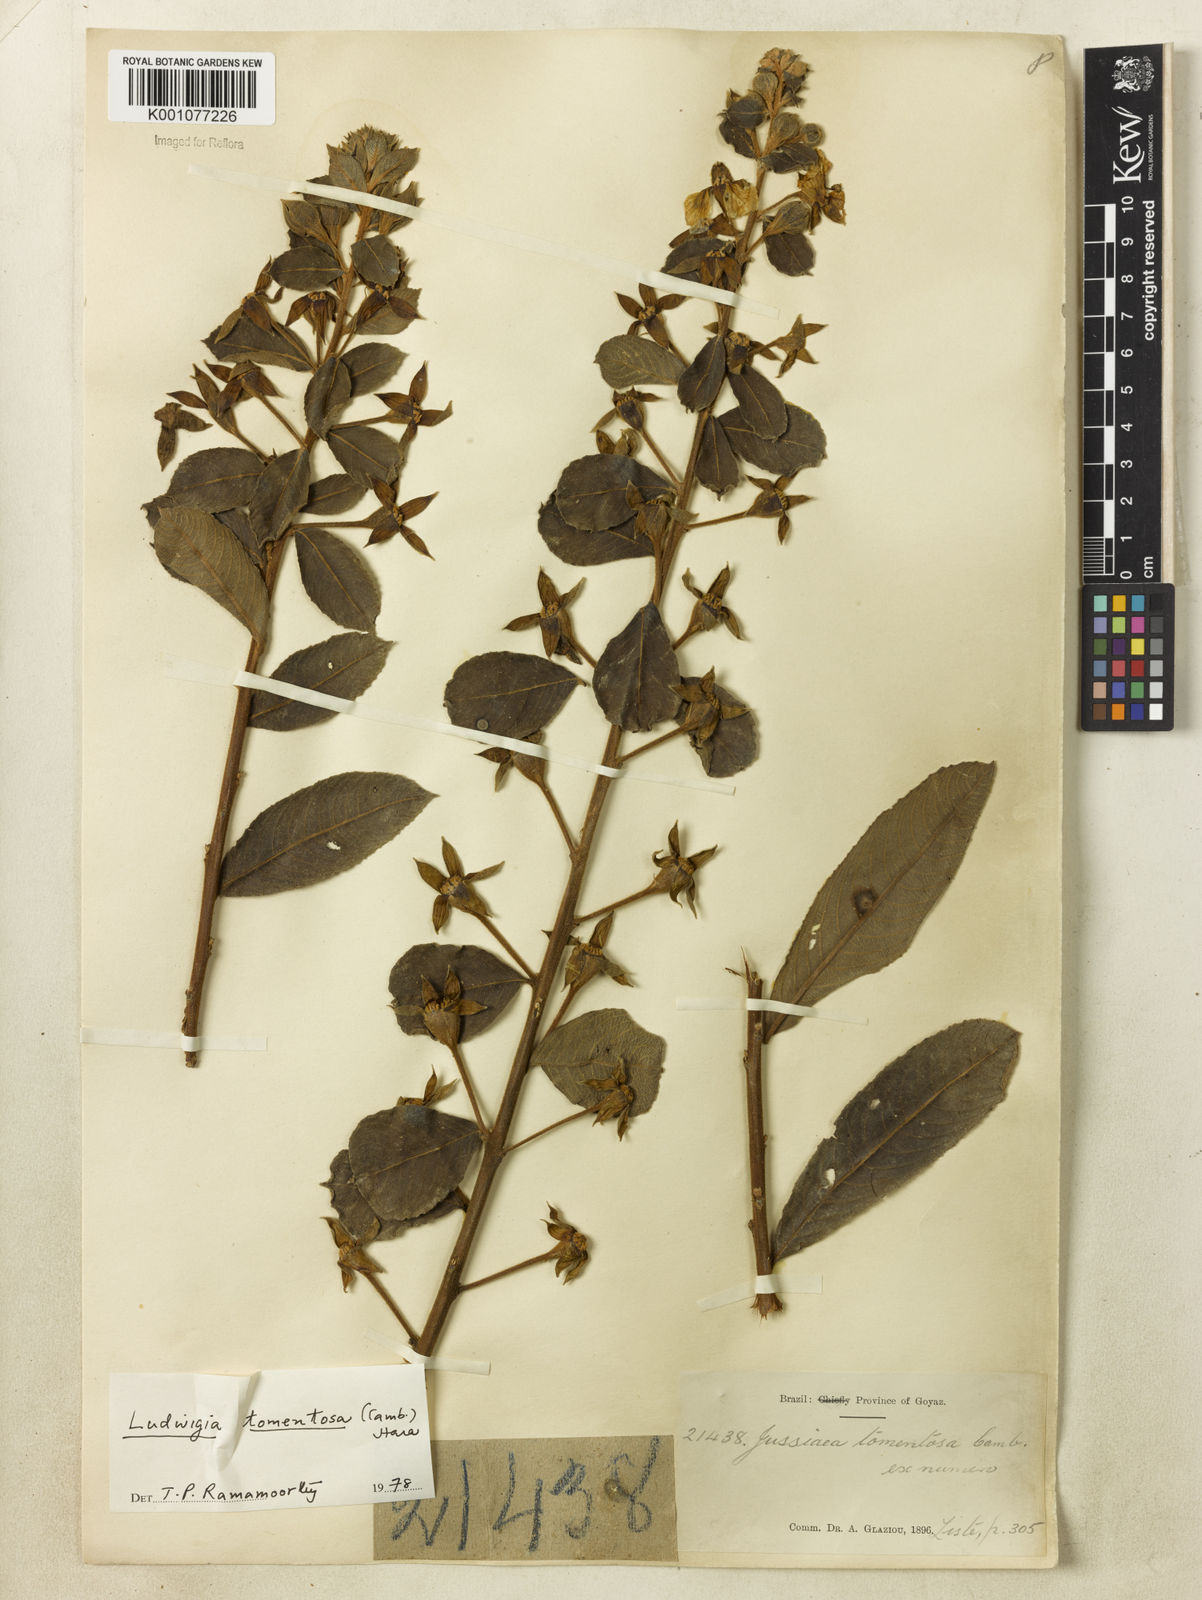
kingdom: Plantae
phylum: Tracheophyta
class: Magnoliopsida
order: Myrtales
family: Onagraceae
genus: Ludwigia
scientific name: Ludwigia tomentosa
